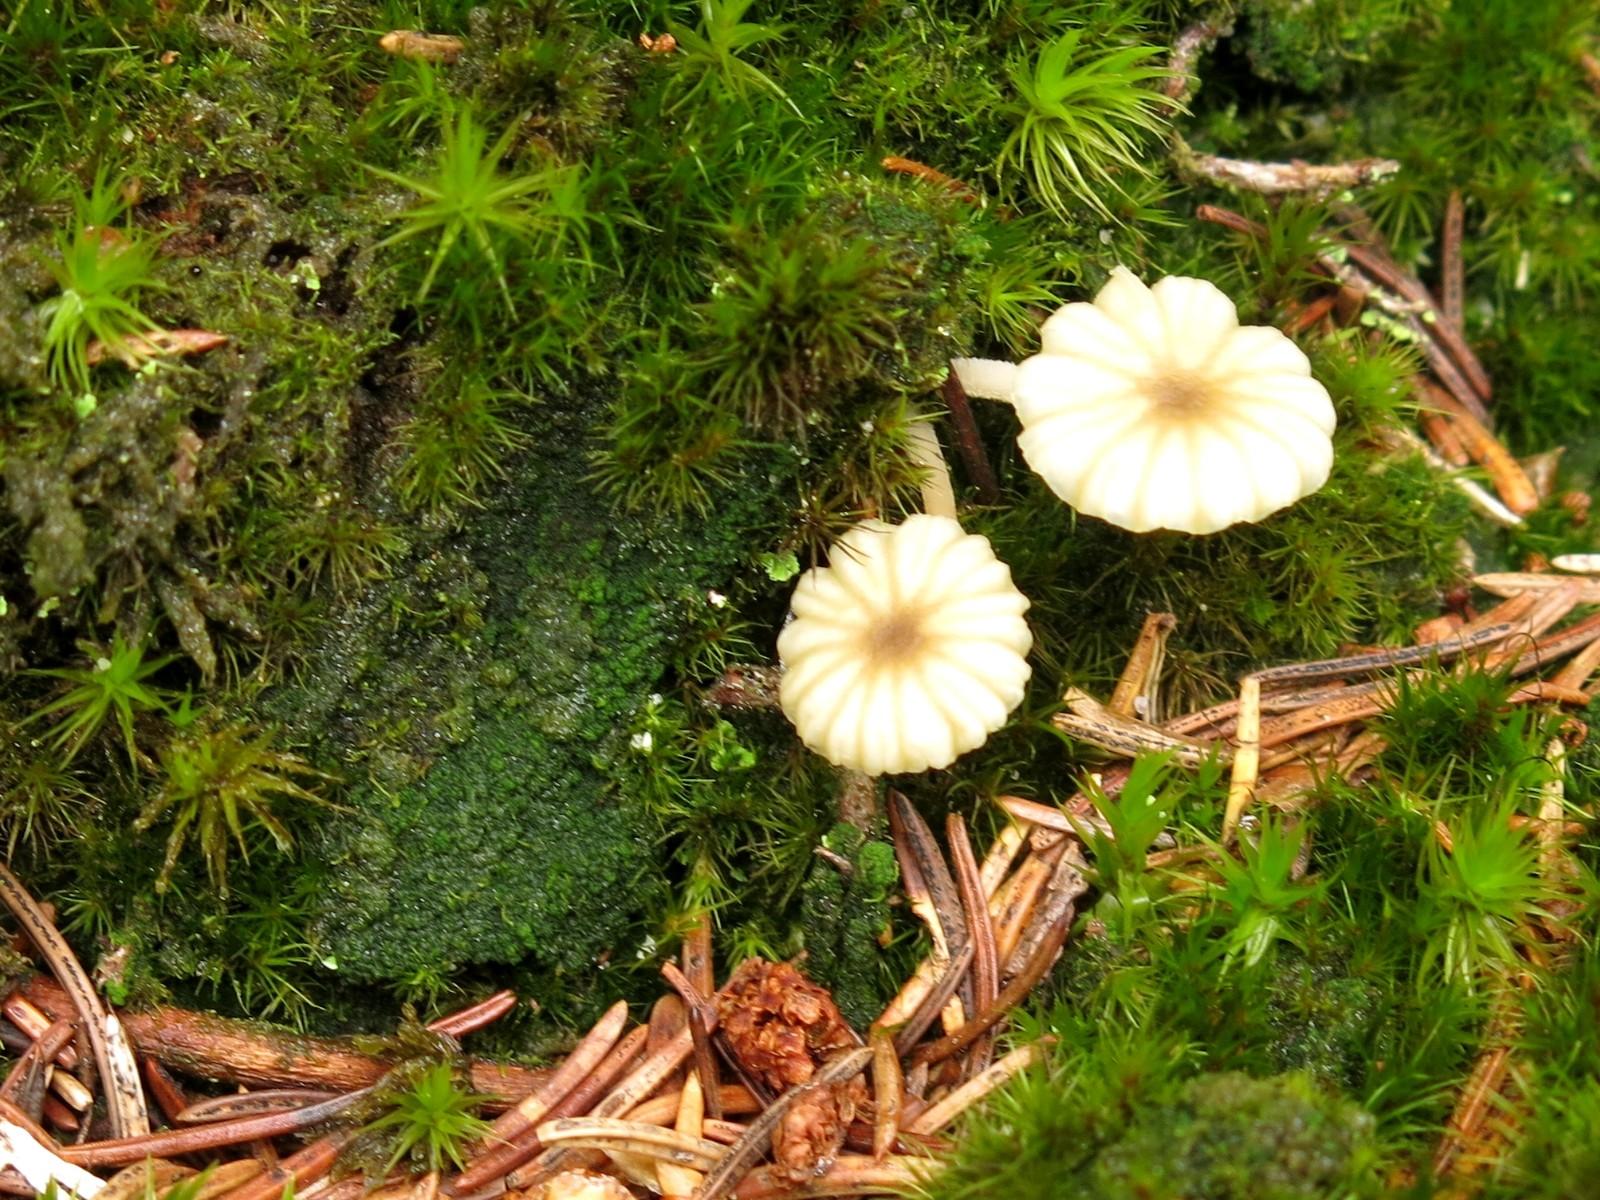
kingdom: Fungi
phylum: Basidiomycota
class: Agaricomycetes
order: Agaricales
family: Hygrophoraceae
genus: Lichenomphalia
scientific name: Lichenomphalia umbellifera
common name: tørve-lavhat
